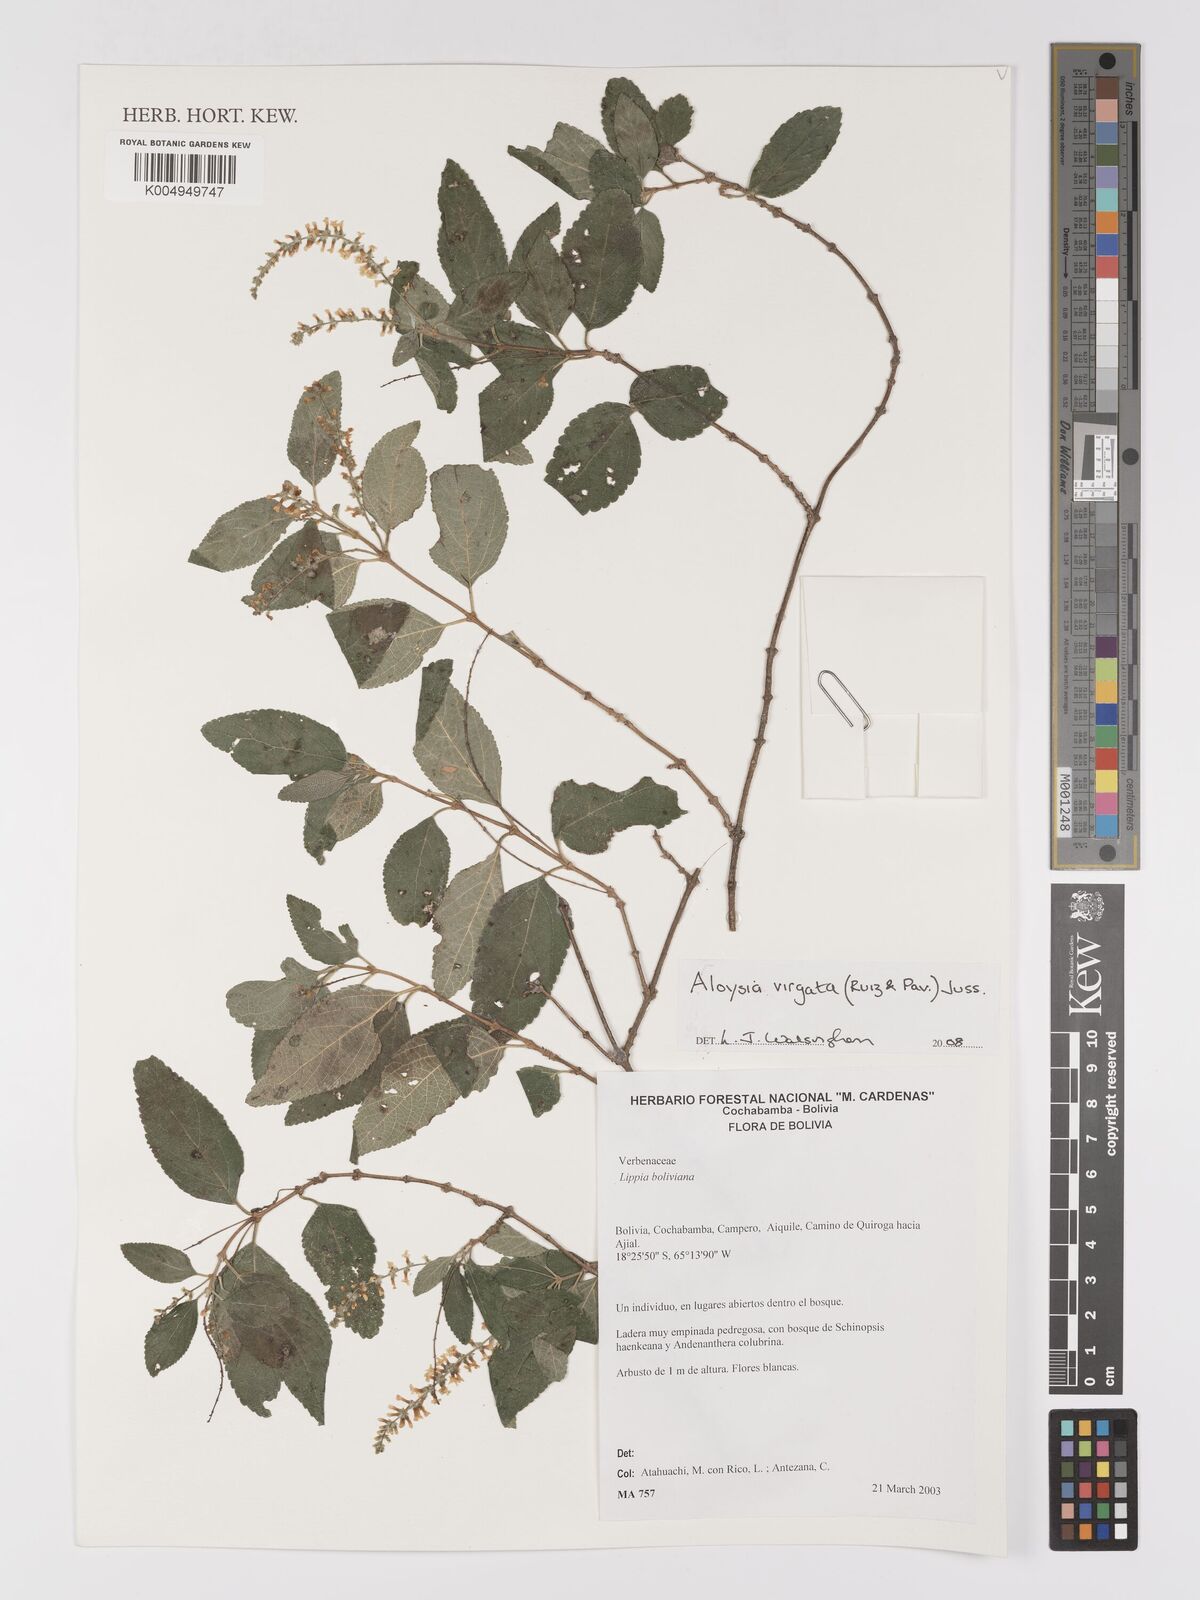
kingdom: Plantae
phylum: Tracheophyta
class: Magnoliopsida
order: Lamiales
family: Verbenaceae
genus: Aloysia
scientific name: Aloysia virgata
